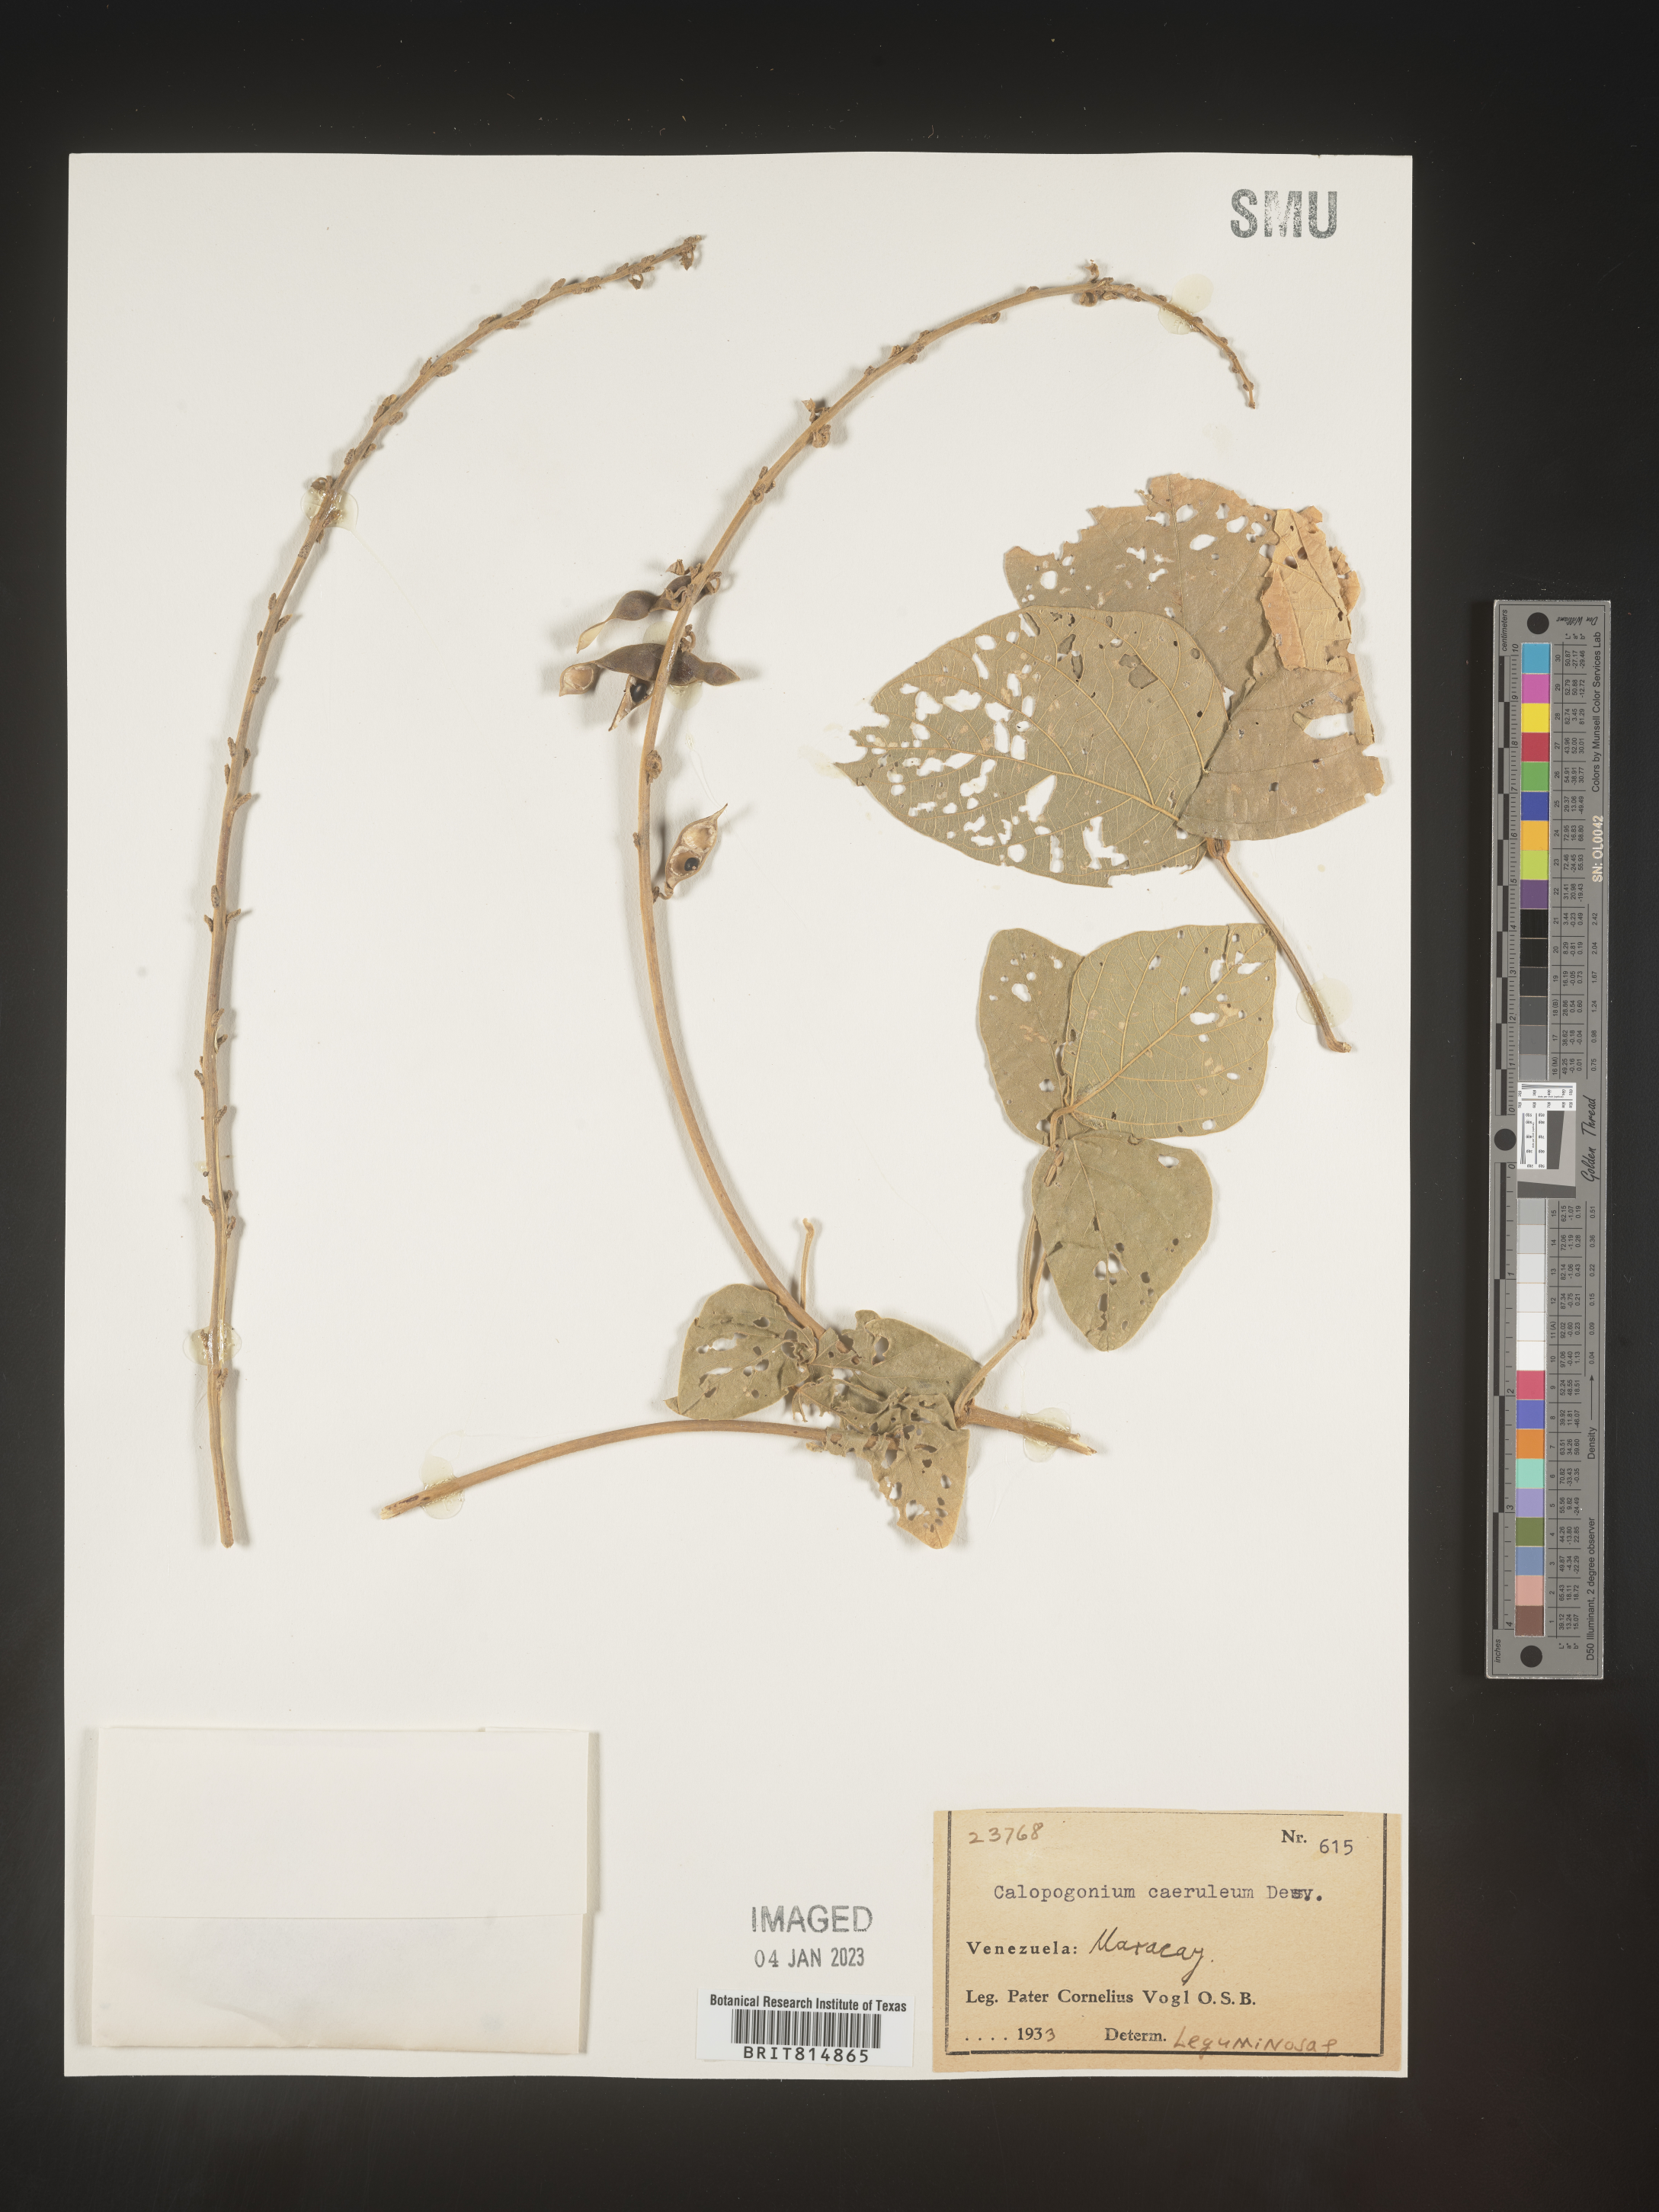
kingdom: Plantae
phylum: Tracheophyta
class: Magnoliopsida
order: Fabales
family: Fabaceae
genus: Calopogonium
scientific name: Calopogonium
